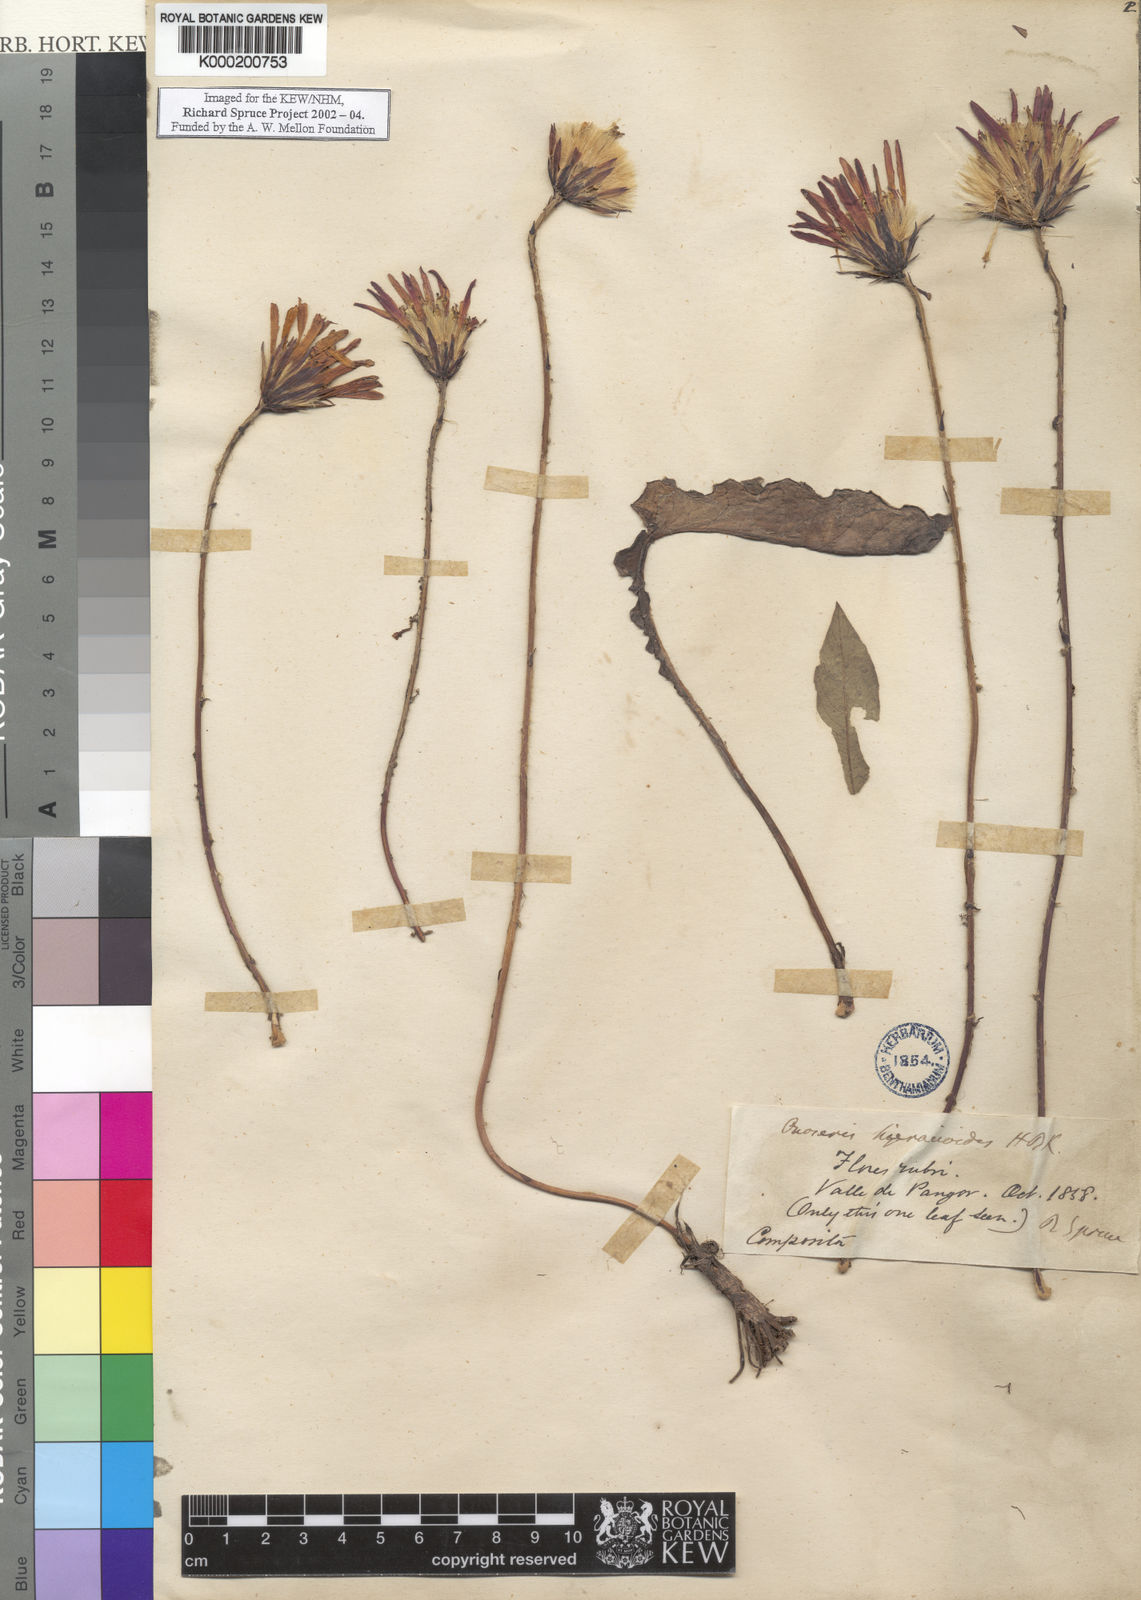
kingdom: Plantae
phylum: Tracheophyta
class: Magnoliopsida
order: Asterales
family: Asteraceae
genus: Onoseris
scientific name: Onoseris
